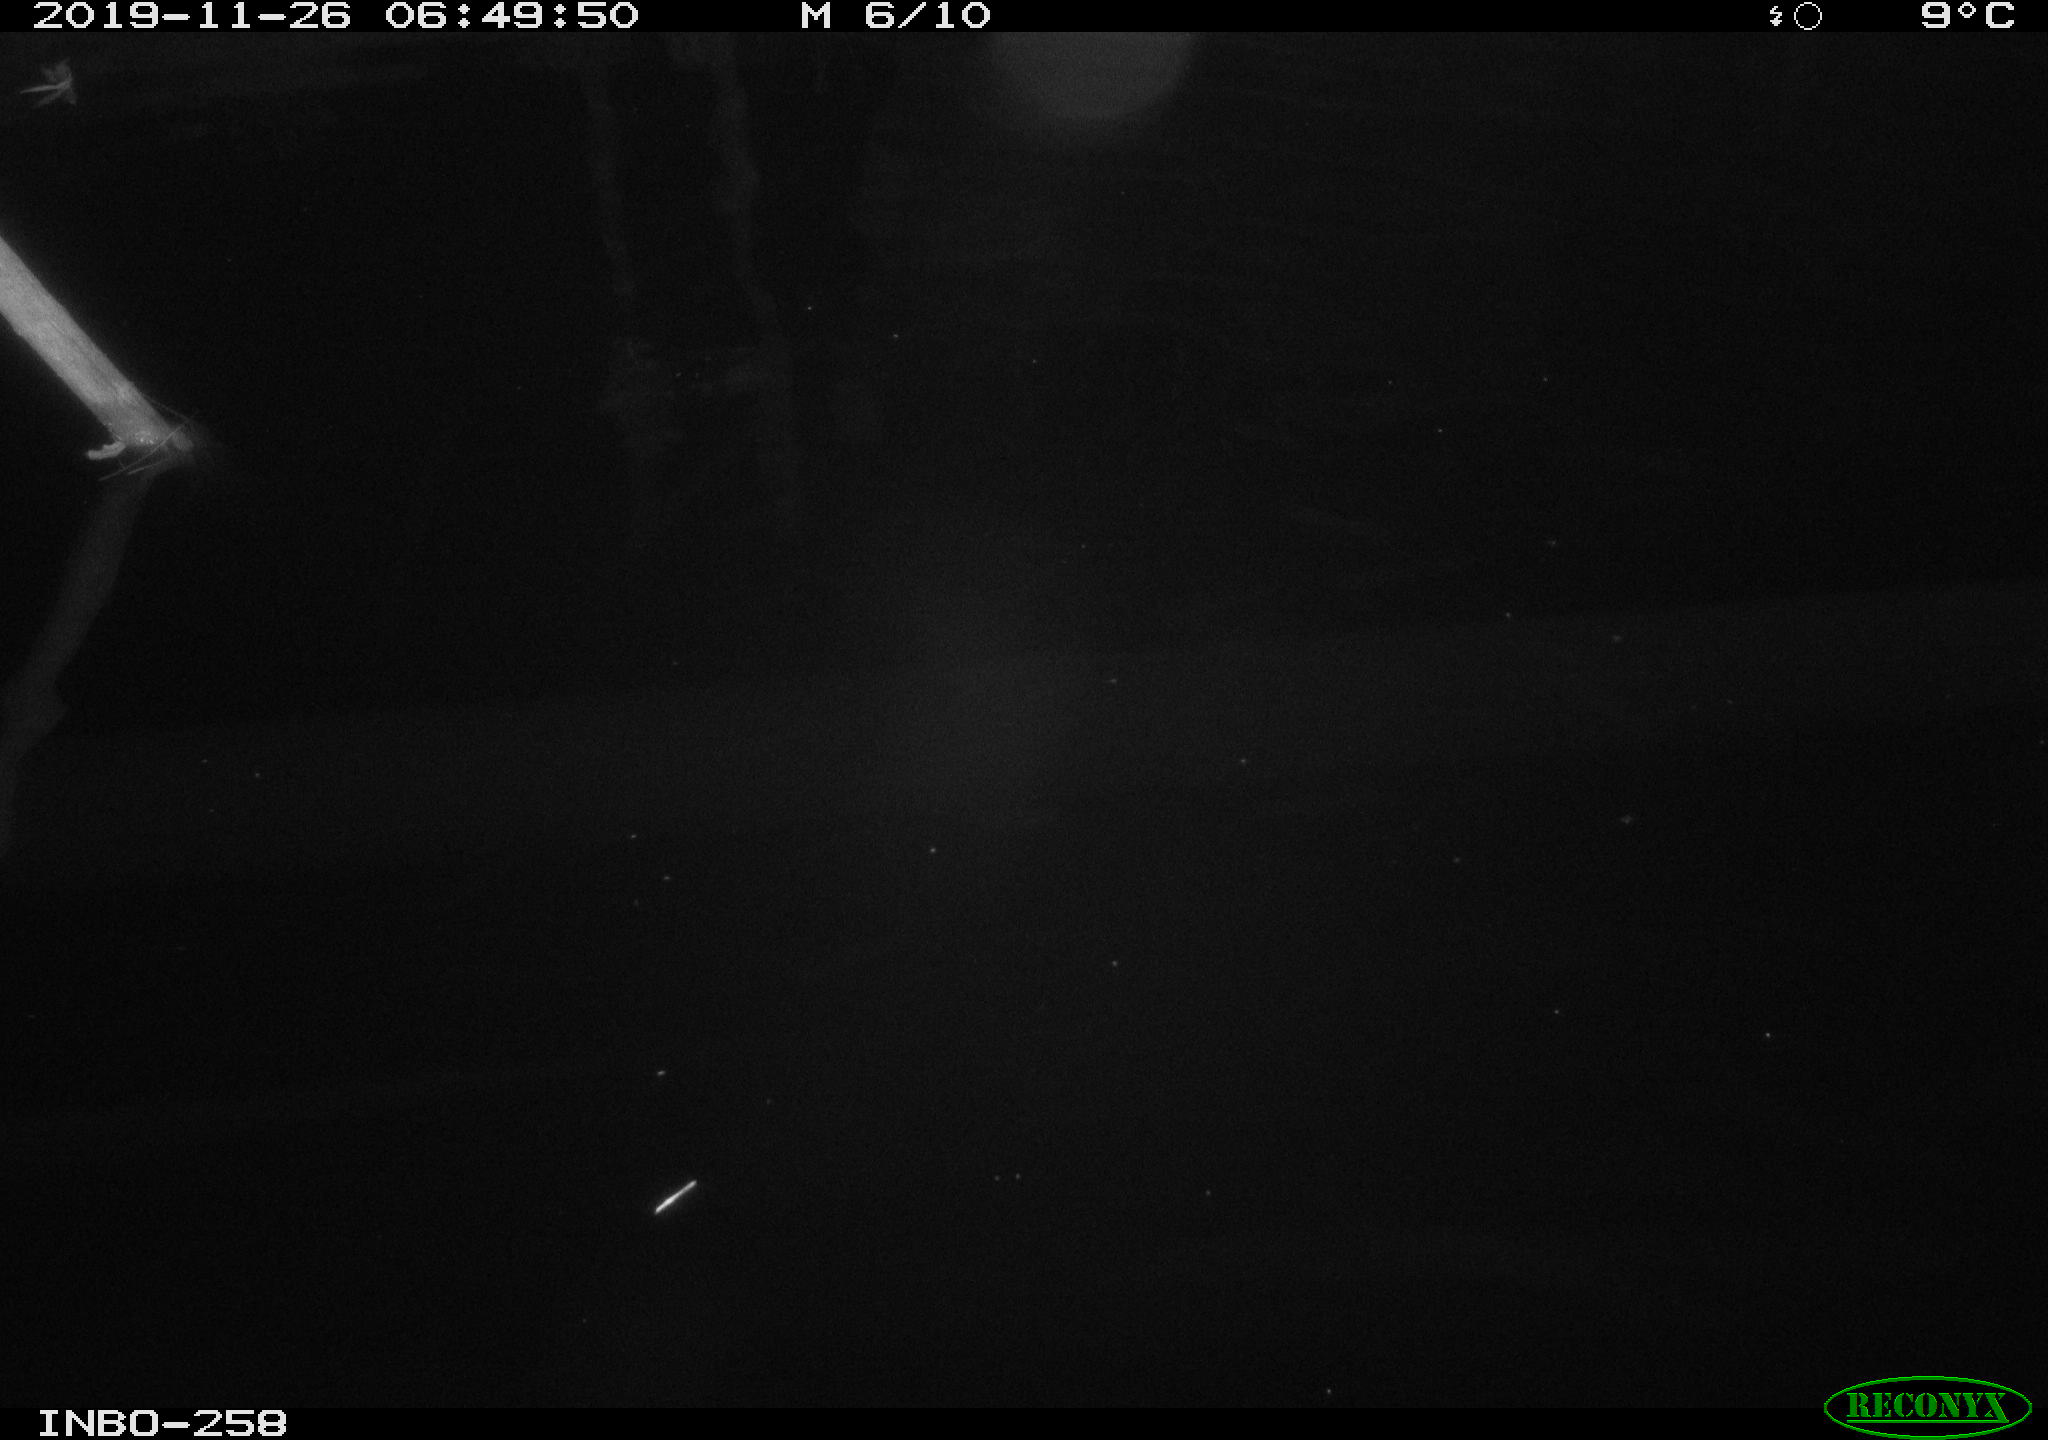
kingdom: Animalia
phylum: Chordata
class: Aves
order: Anseriformes
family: Anatidae
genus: Anas
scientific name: Anas platyrhynchos
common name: Mallard
